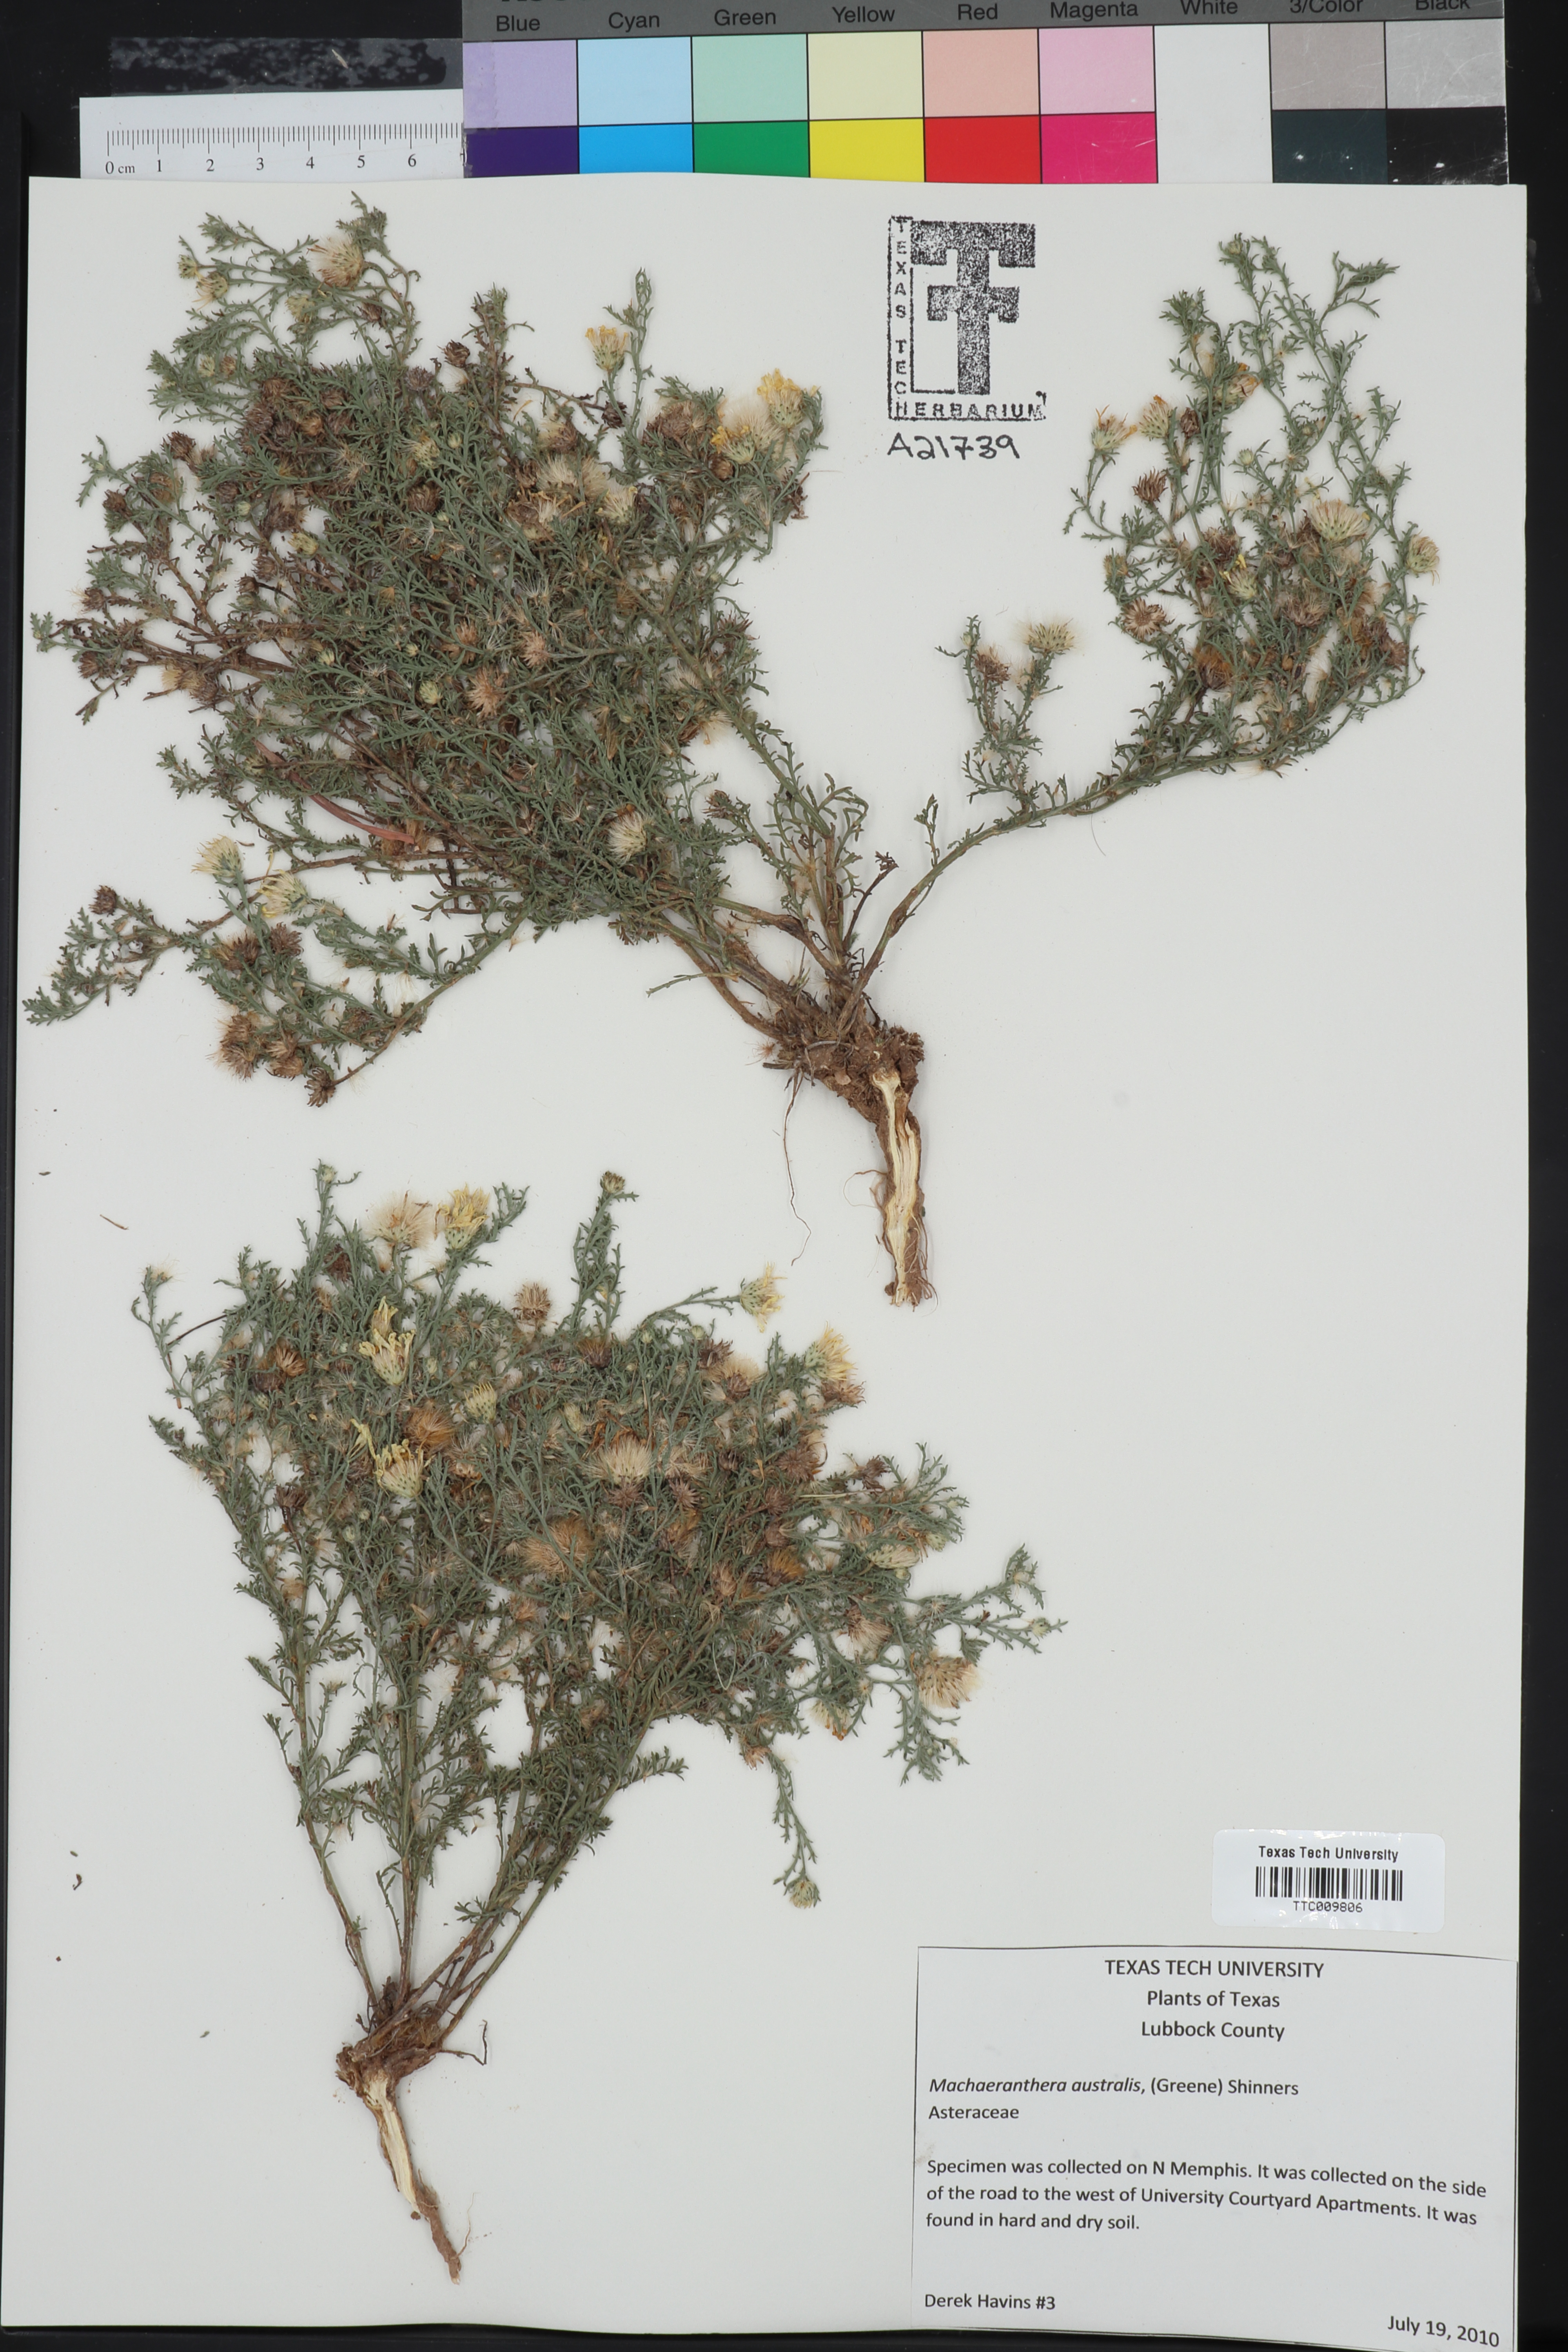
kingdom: Plantae
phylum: Tracheophyta
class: Magnoliopsida
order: Asterales
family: Asteraceae
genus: Xanthisma
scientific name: Xanthisma spinulosum
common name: Spiny goldenweed
